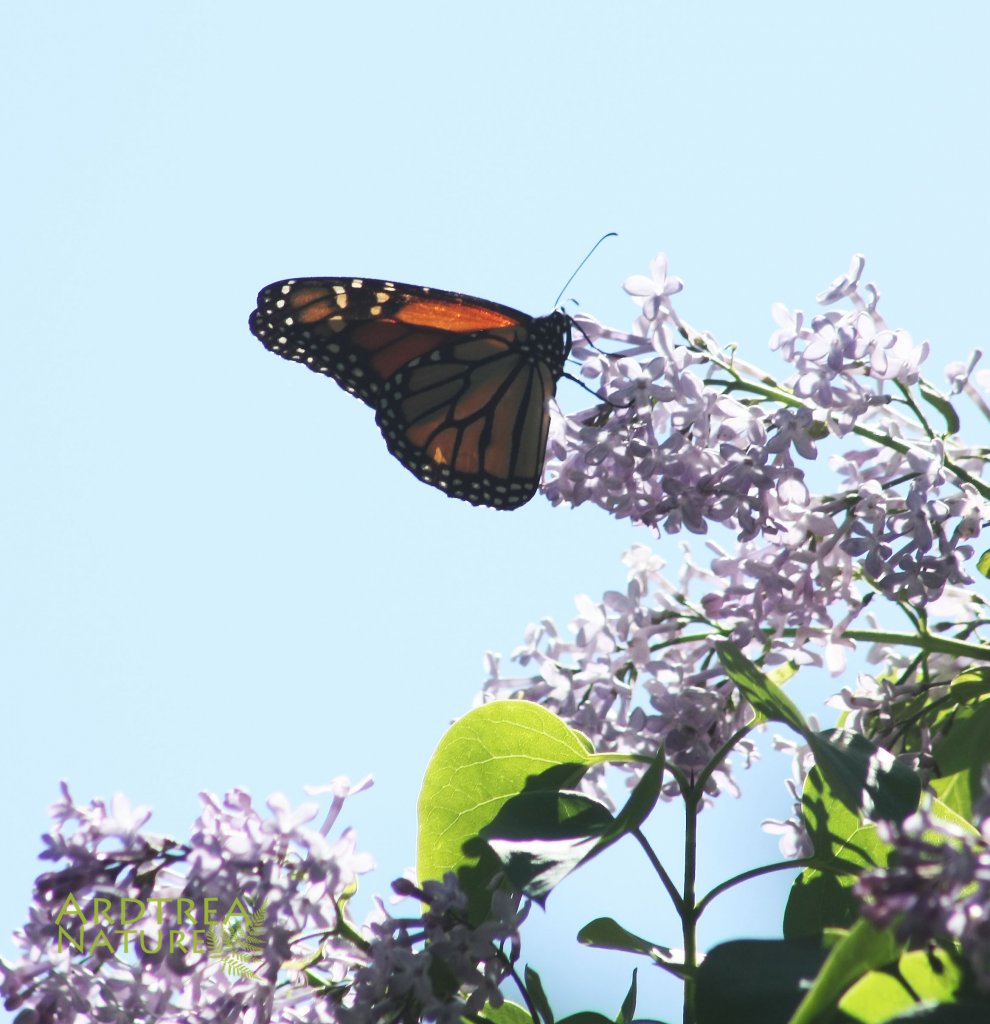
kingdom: Animalia
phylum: Arthropoda
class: Insecta
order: Lepidoptera
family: Nymphalidae
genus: Danaus
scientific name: Danaus plexippus
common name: Monarch
